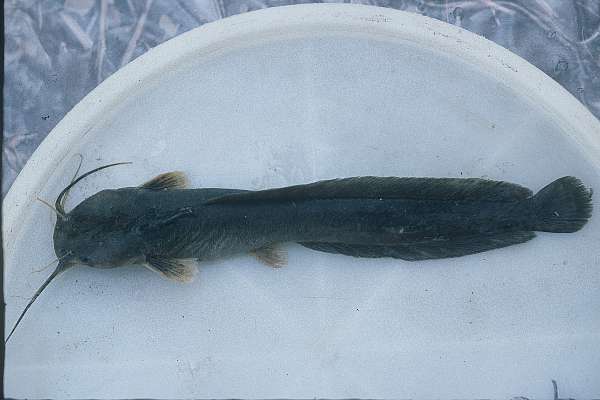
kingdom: Animalia
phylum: Chordata
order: Siluriformes
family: Clariidae
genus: Clariallabes
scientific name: Clariallabes
